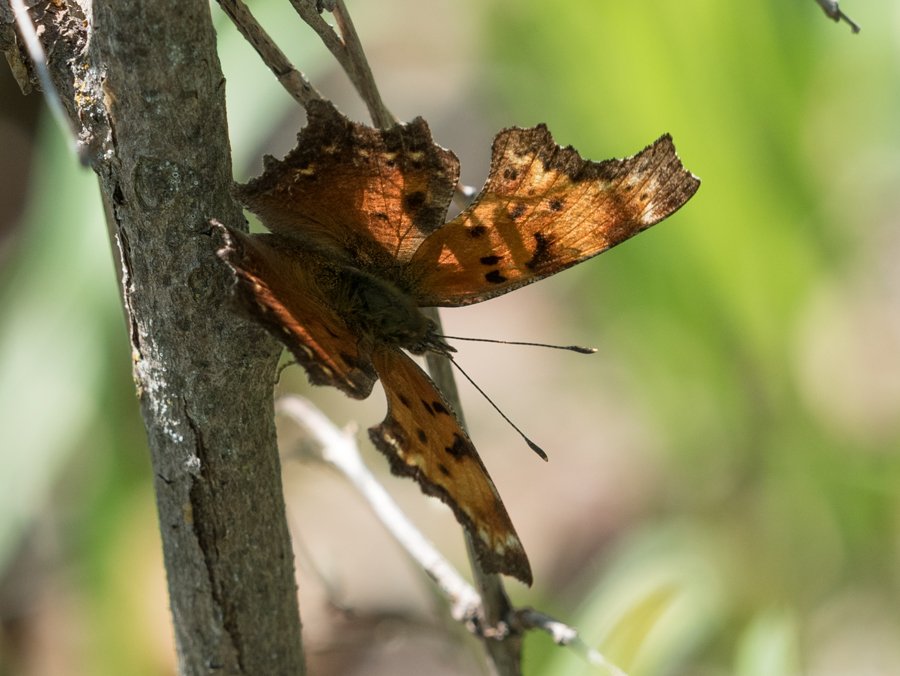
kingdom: Animalia
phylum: Arthropoda
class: Insecta
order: Lepidoptera
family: Nymphalidae
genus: Polygonia
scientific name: Polygonia progne
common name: Gray Comma
